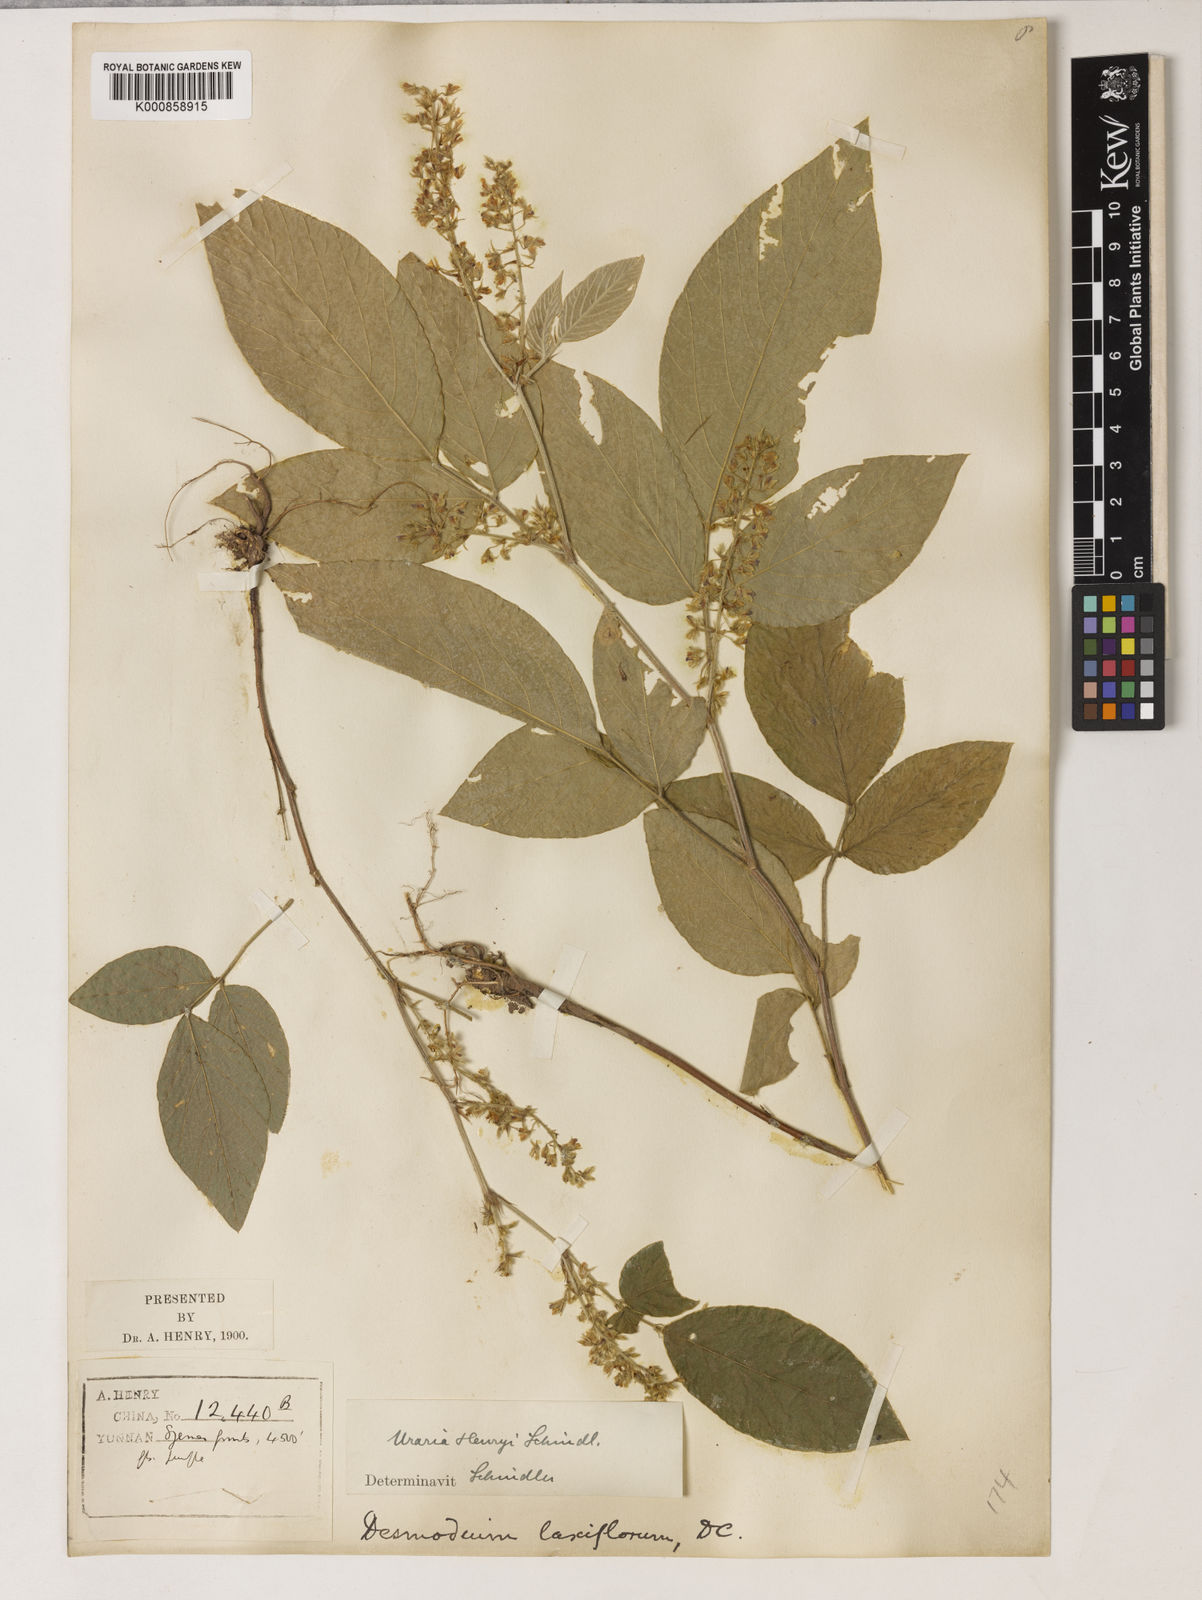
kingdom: Plantae
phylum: Tracheophyta
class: Magnoliopsida
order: Fabales
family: Fabaceae
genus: Sohmaea
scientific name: Sohmaea hispida
